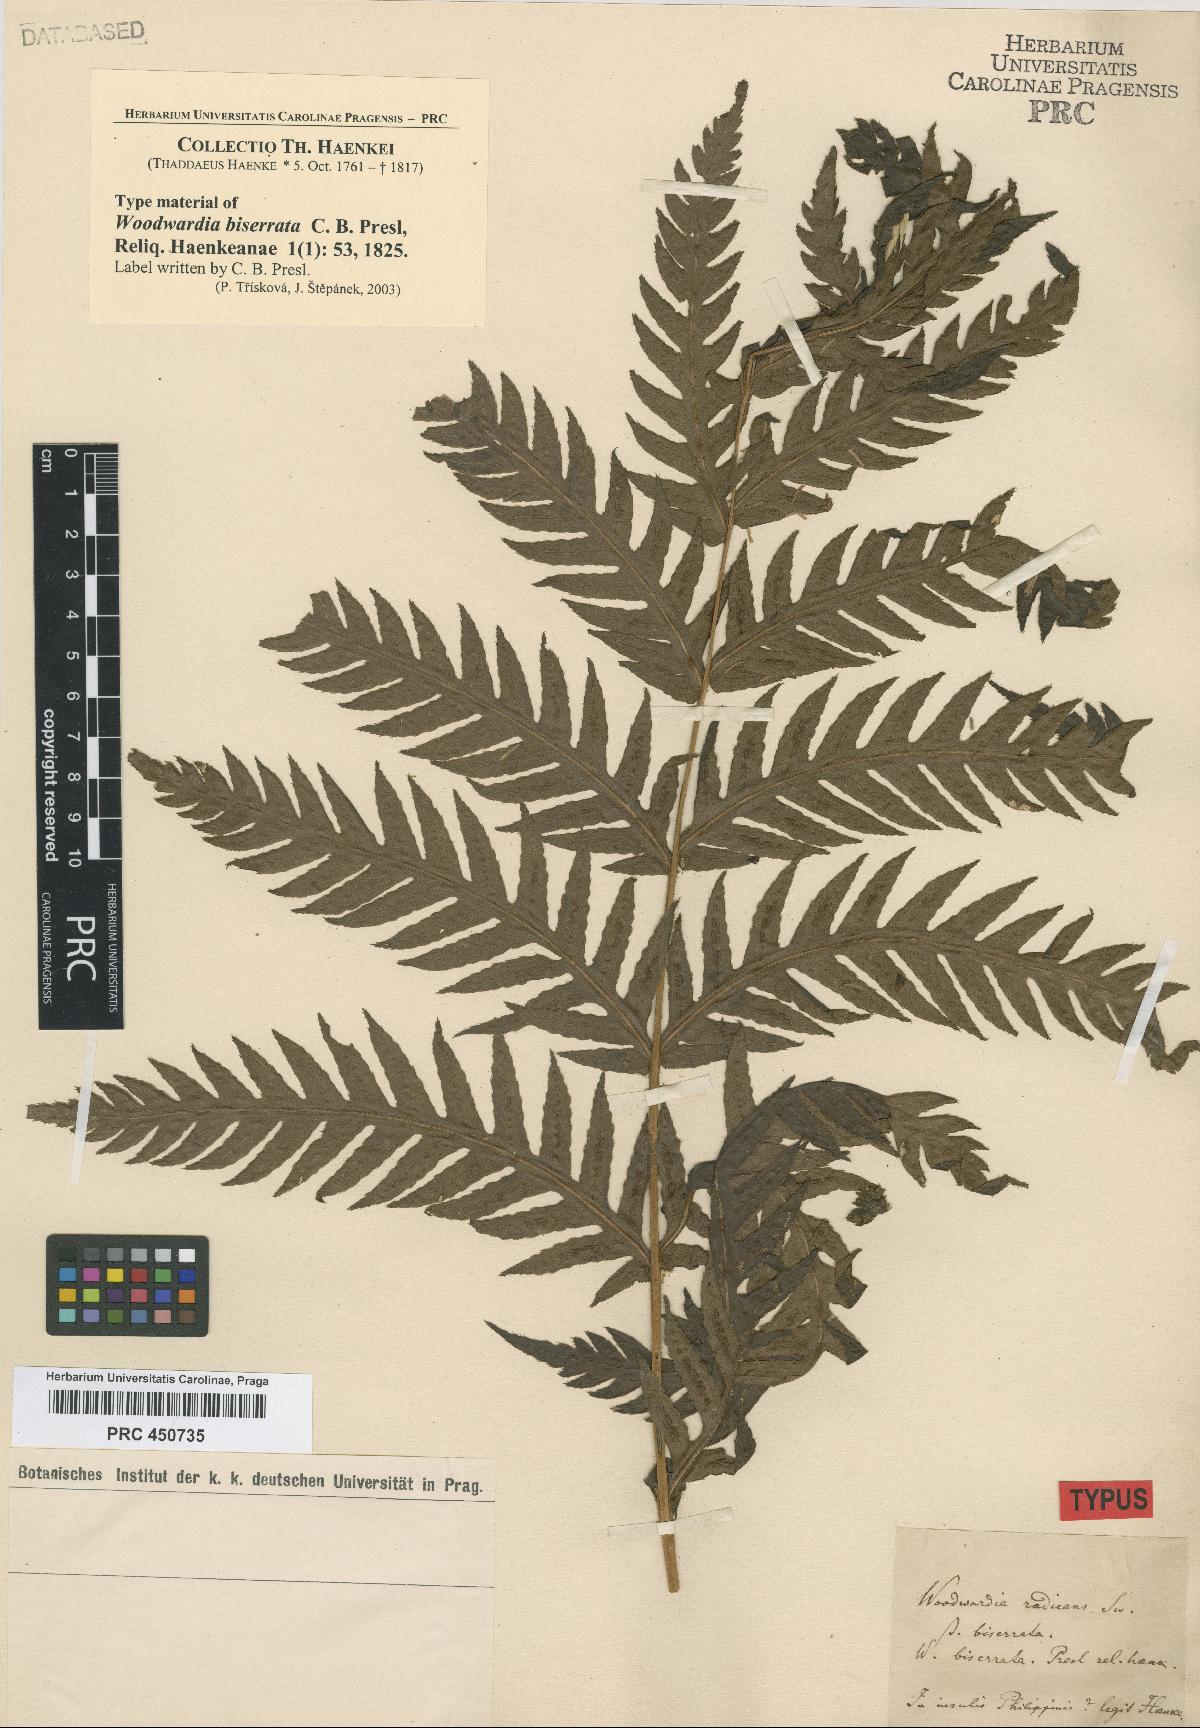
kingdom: Plantae
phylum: Tracheophyta
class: Polypodiopsida
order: Polypodiales
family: Blechnaceae
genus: Woodwardia
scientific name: Woodwardia fimbriata
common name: Giant chain fern
